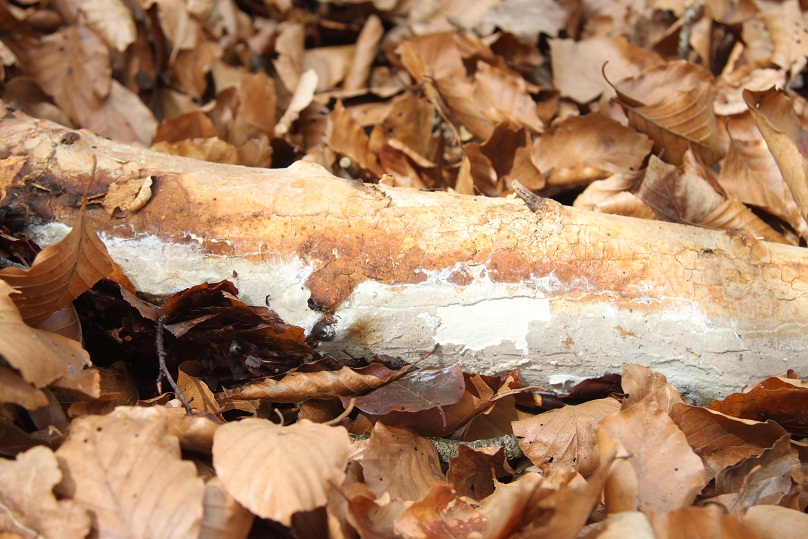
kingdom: Fungi
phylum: Basidiomycota
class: Agaricomycetes
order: Russulales
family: Peniophoraceae
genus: Scytinostroma
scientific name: Scytinostroma hemidichophyticum
